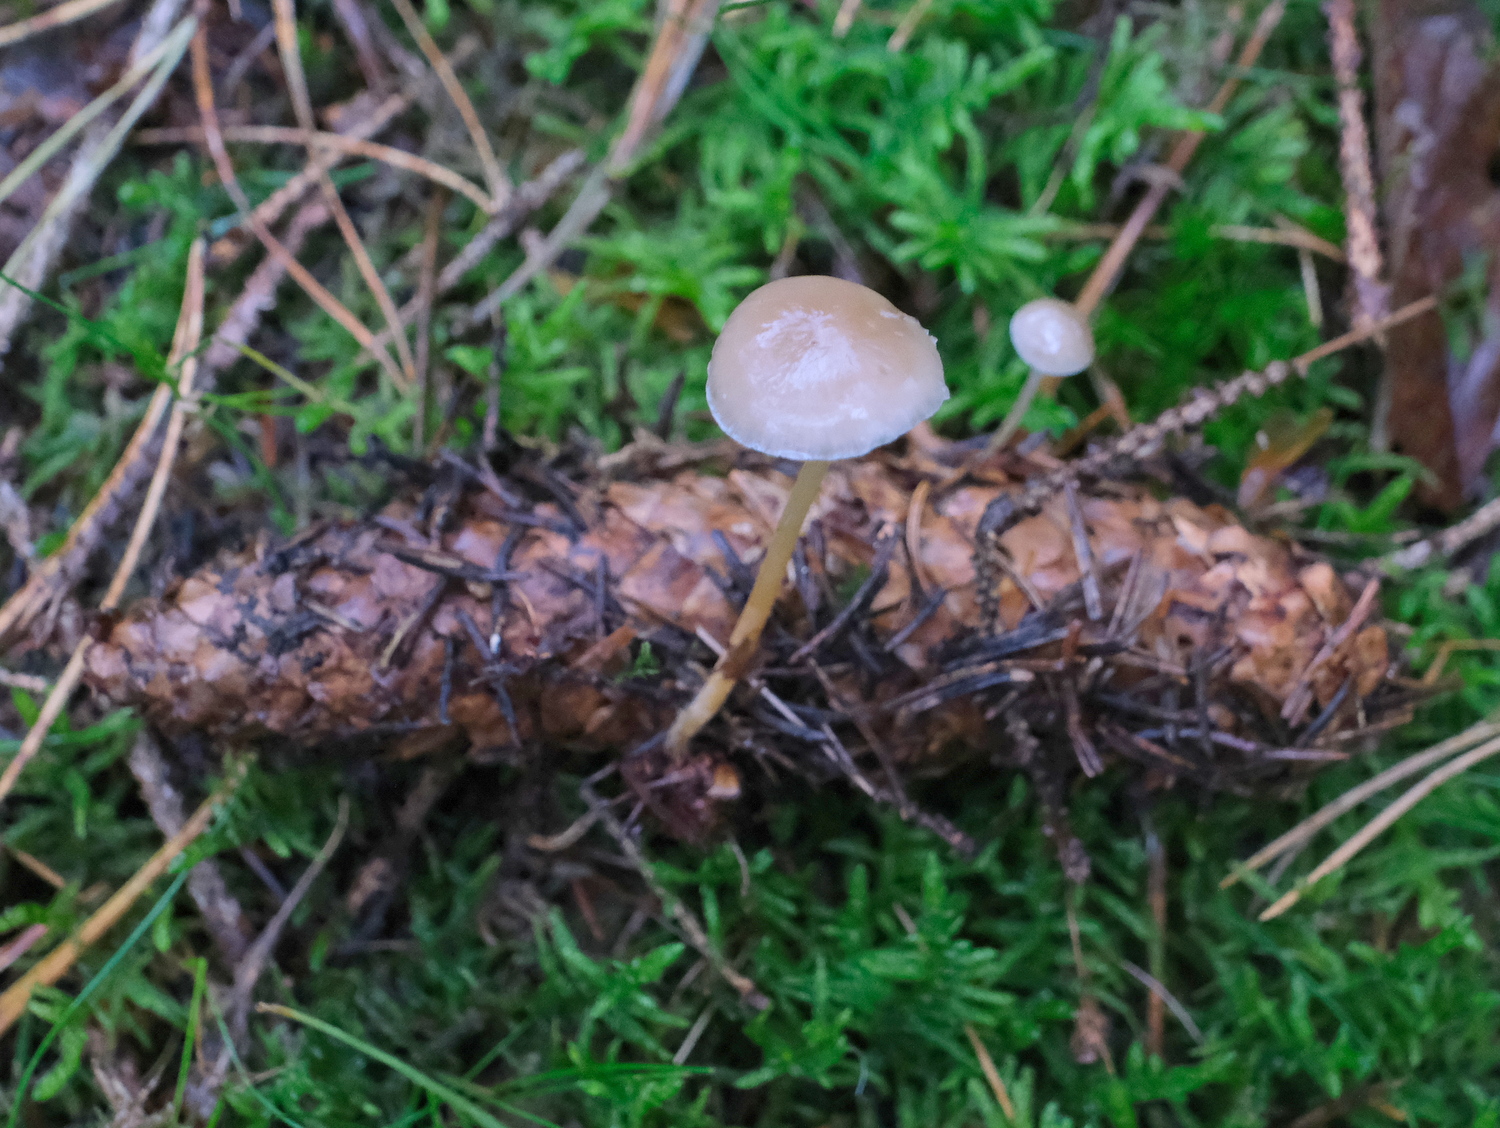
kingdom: Fungi
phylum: Basidiomycota
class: Agaricomycetes
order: Agaricales
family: Physalacriaceae
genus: Strobilurus
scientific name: Strobilurus esculentus
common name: gran-koglehat
